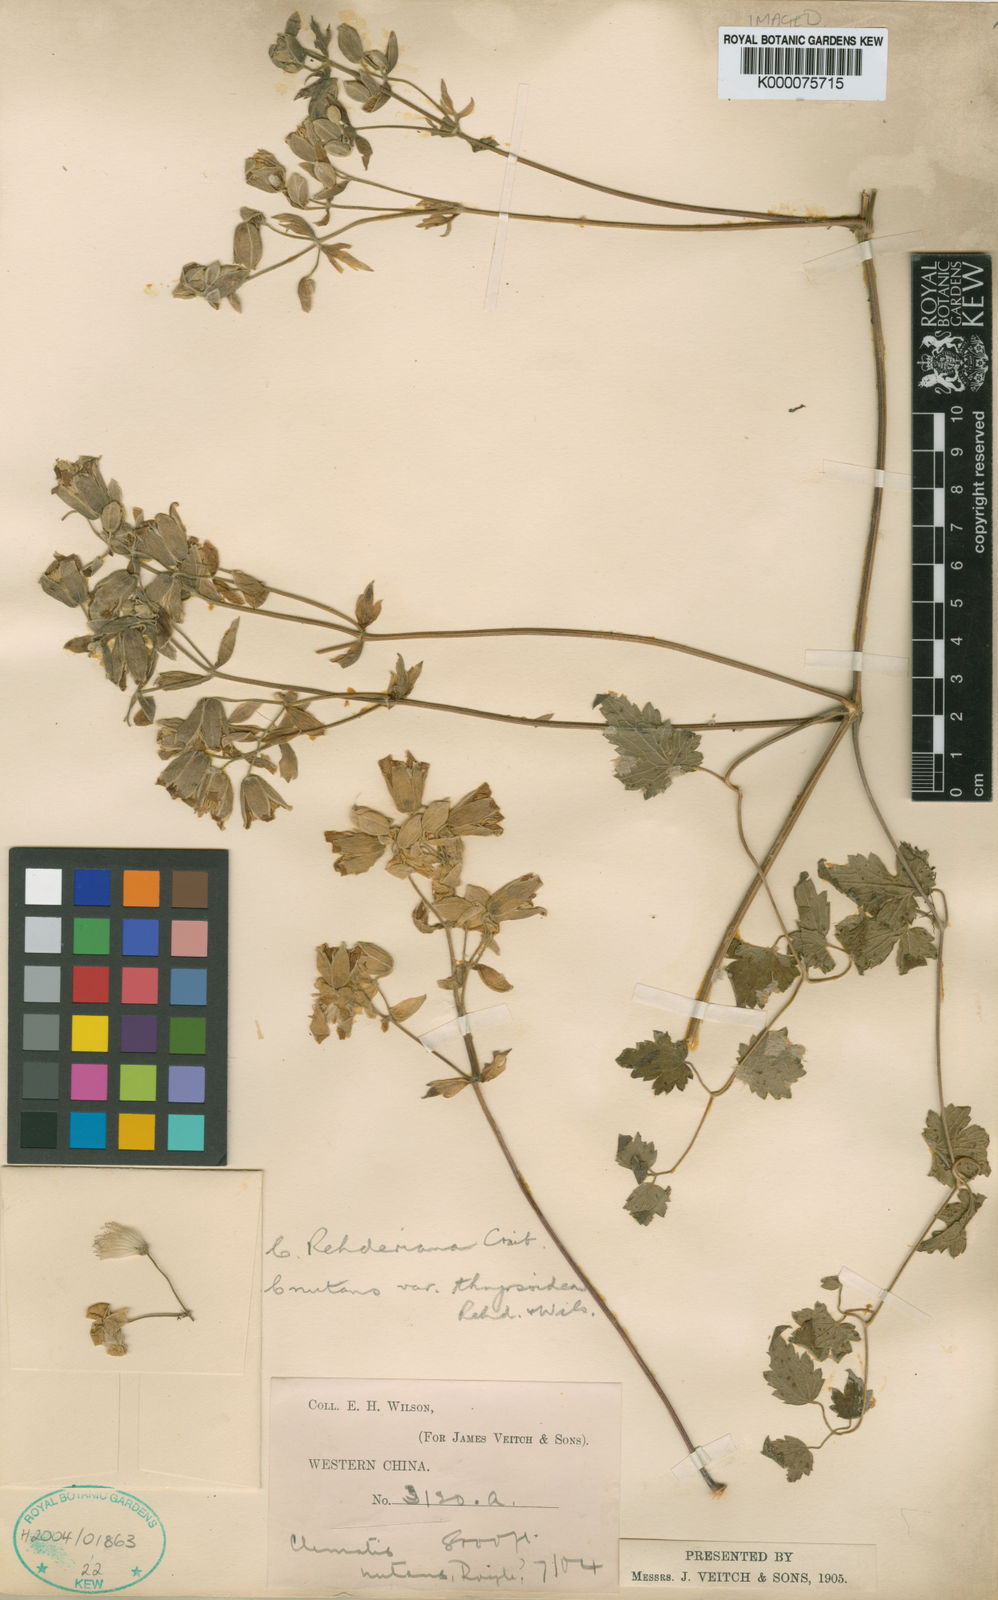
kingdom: Plantae
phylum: Tracheophyta
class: Magnoliopsida
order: Ranunculales
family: Ranunculaceae
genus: Clematis
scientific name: Clematis rehderiana
